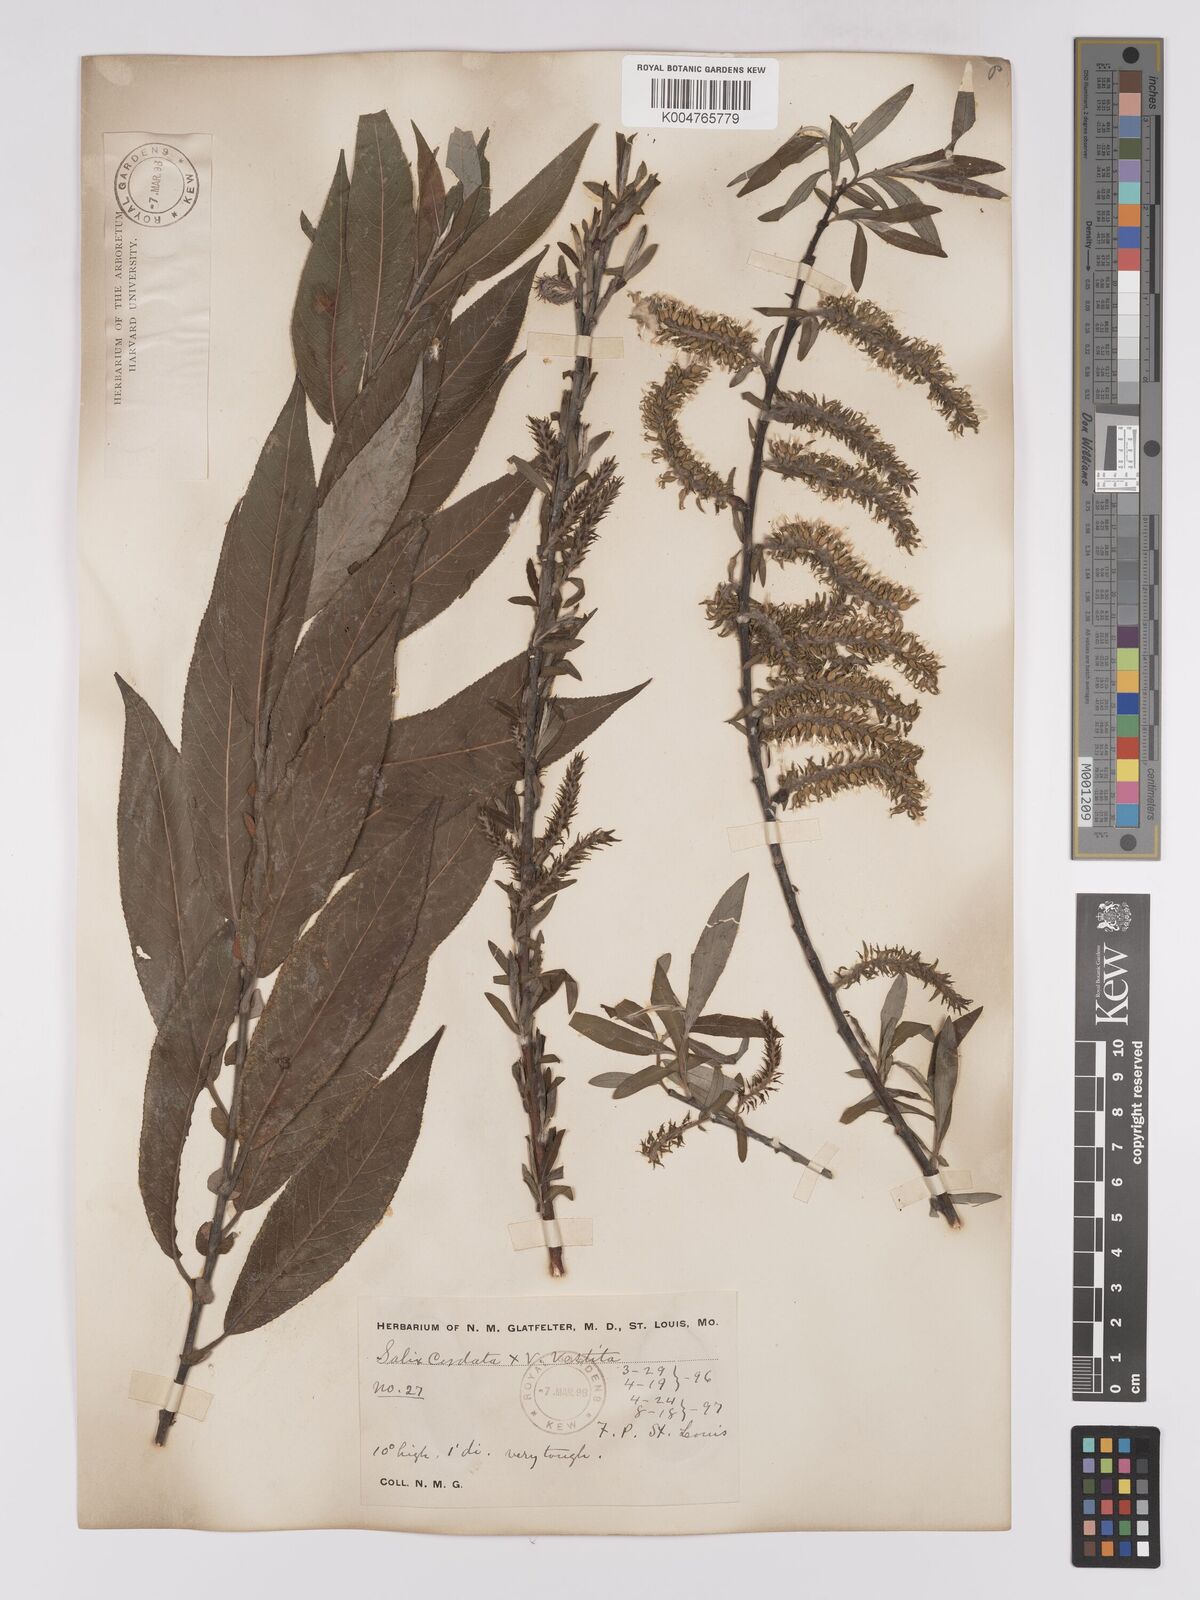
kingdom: Plantae
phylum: Tracheophyta
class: Magnoliopsida
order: Malpighiales
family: Salicaceae
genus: Salix
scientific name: Salix cordata
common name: Heart-leaf willow
